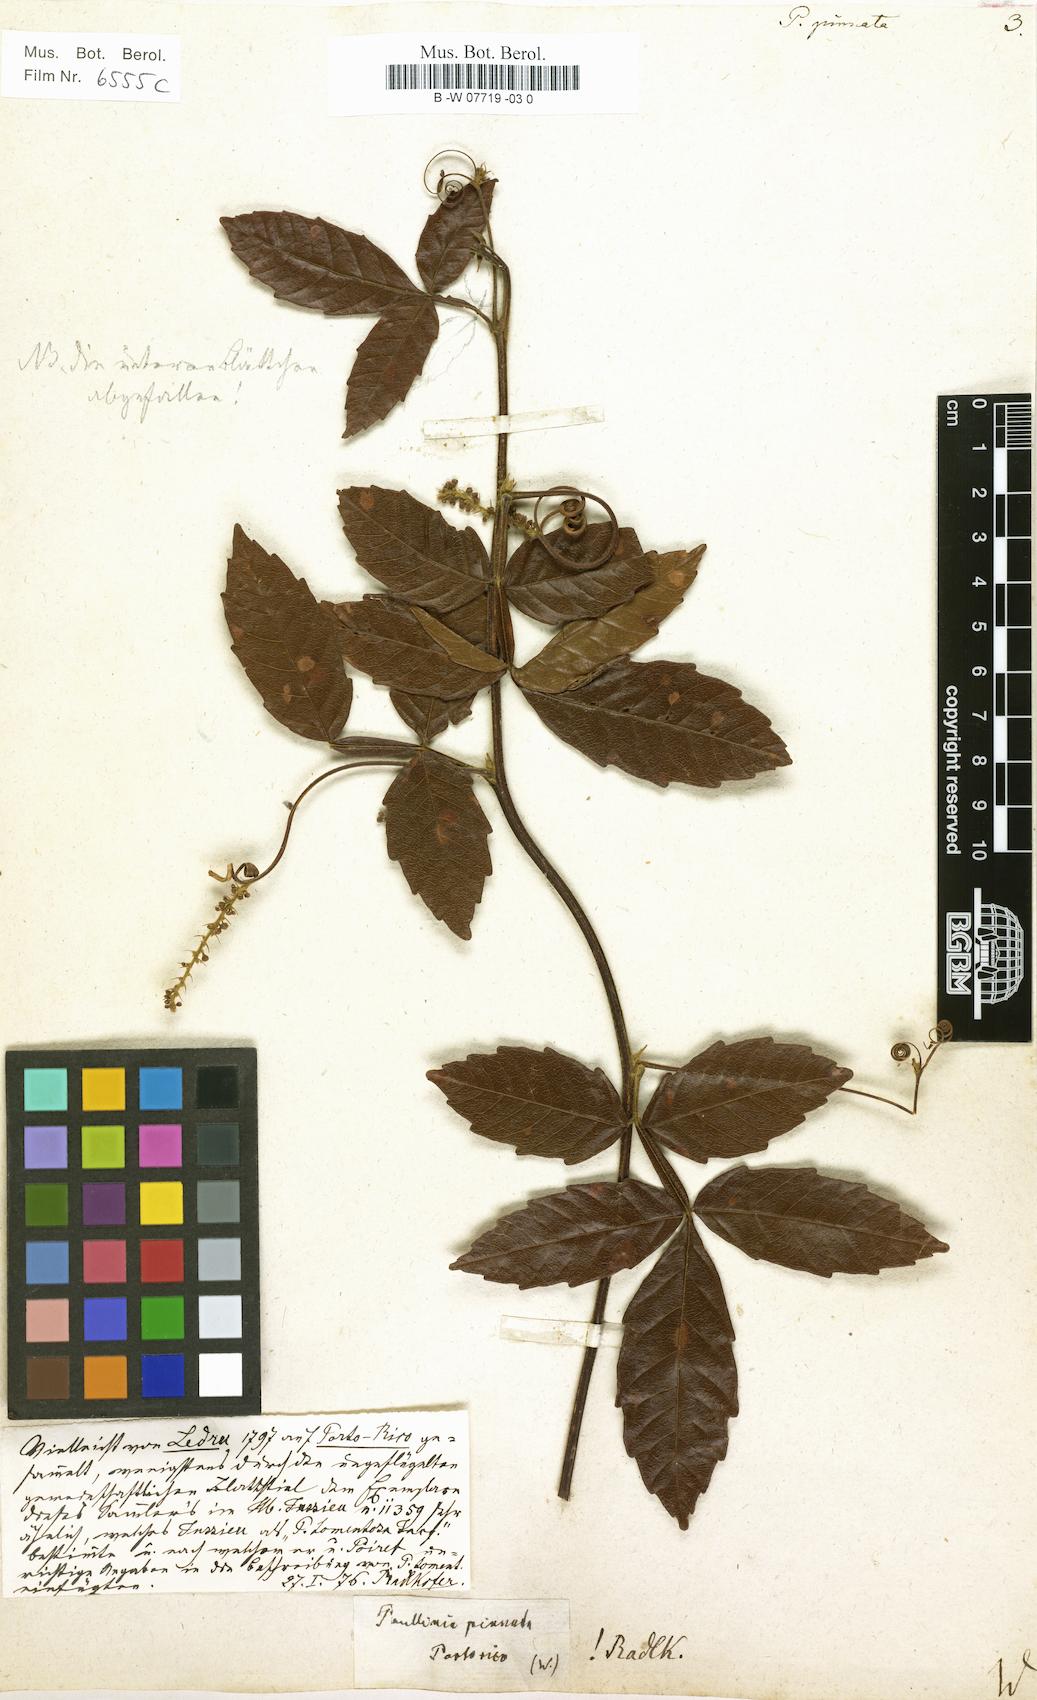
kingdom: Plantae
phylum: Tracheophyta
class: Magnoliopsida
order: Sapindales
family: Sapindaceae
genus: Paullinia
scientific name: Paullinia pinnata
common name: Barbasco
